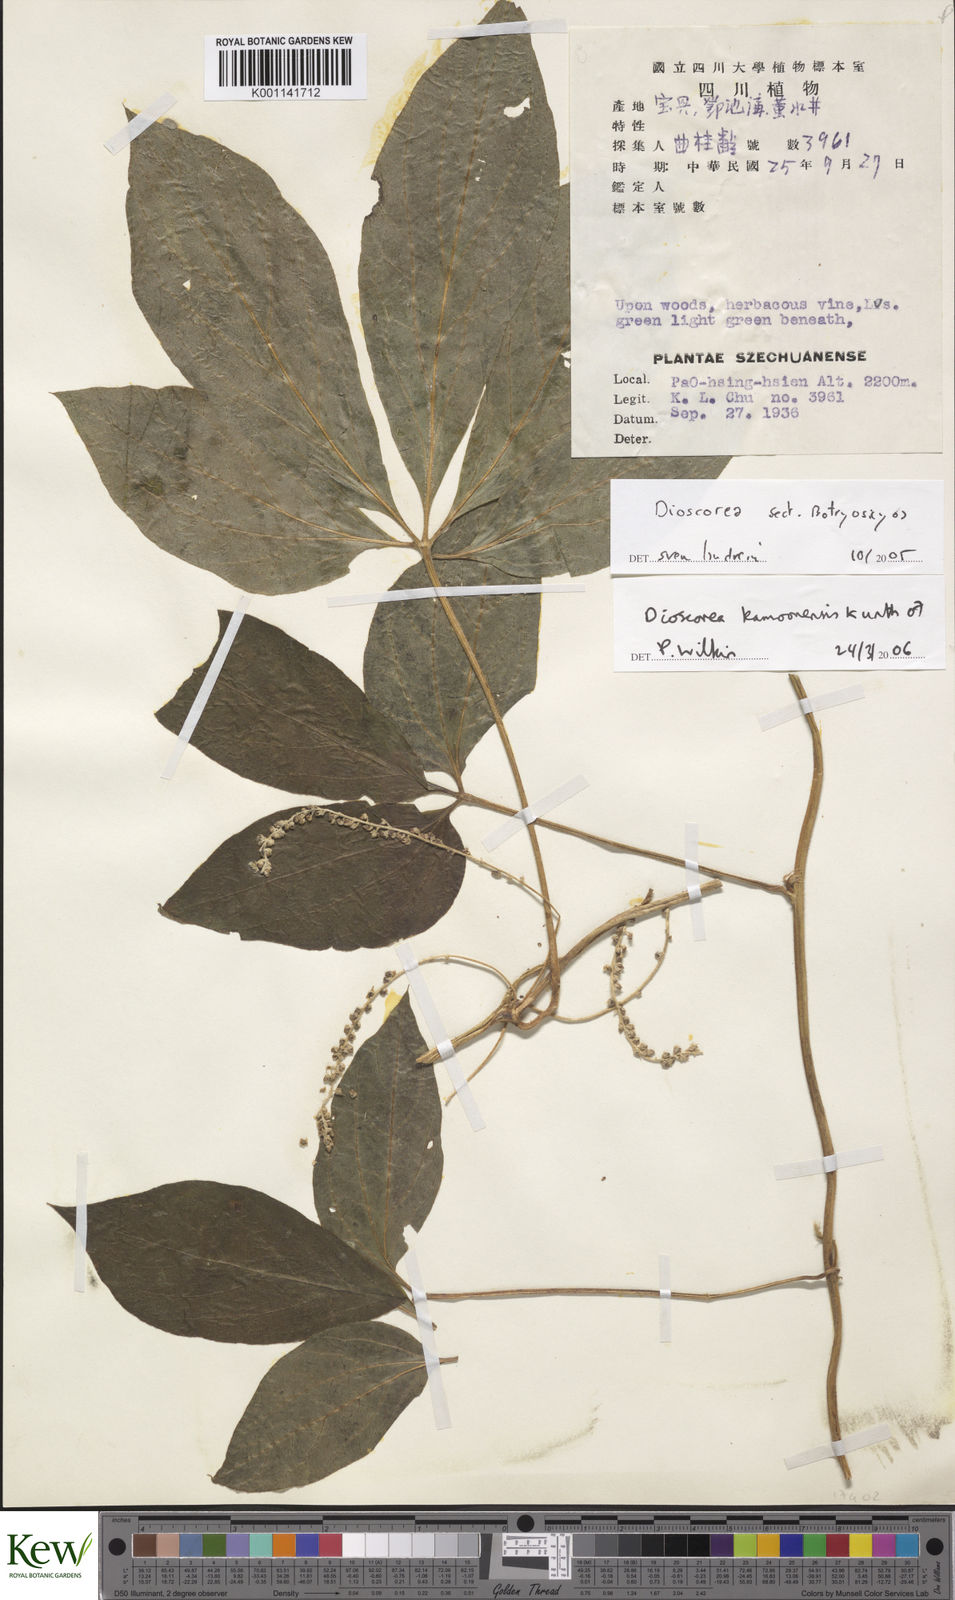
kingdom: Plantae
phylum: Tracheophyta
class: Liliopsida
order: Dioscoreales
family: Dioscoreaceae
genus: Dioscorea
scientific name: Dioscorea kamoonensis
